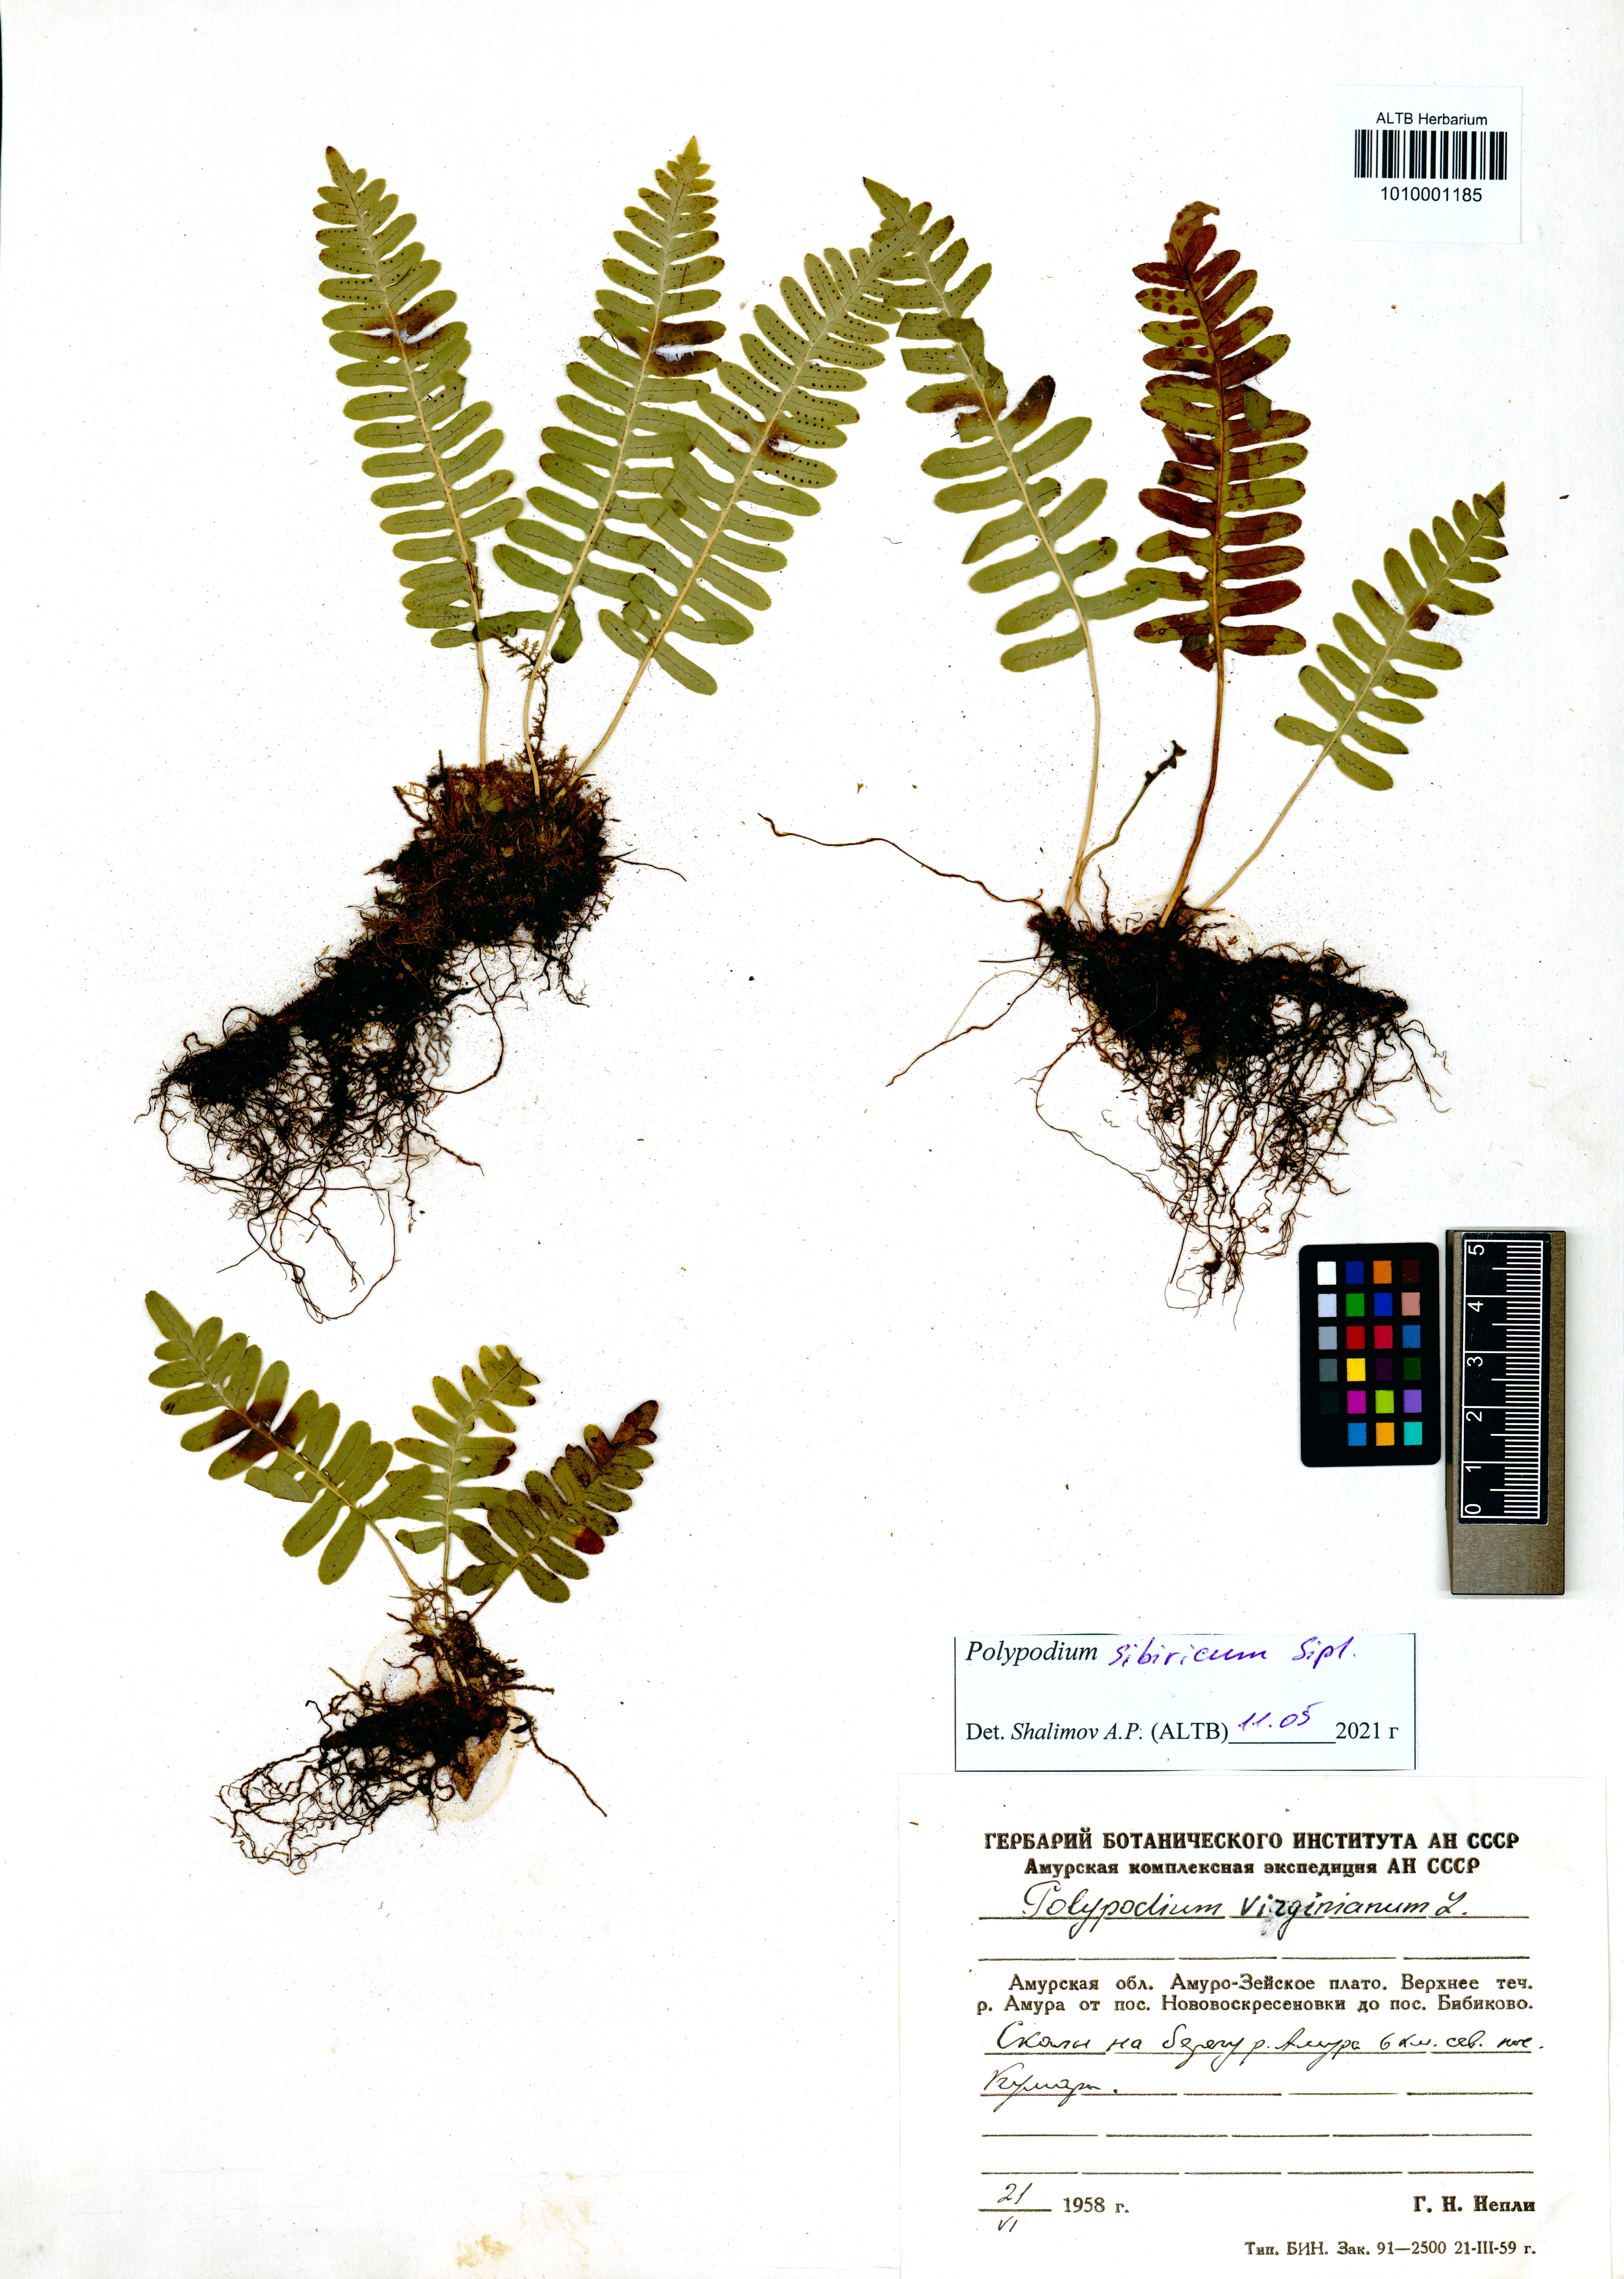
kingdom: Plantae
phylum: Tracheophyta
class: Polypodiopsida
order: Polypodiales
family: Polypodiaceae
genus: Polypodium
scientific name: Polypodium sibiricum
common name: Siberian polypody
